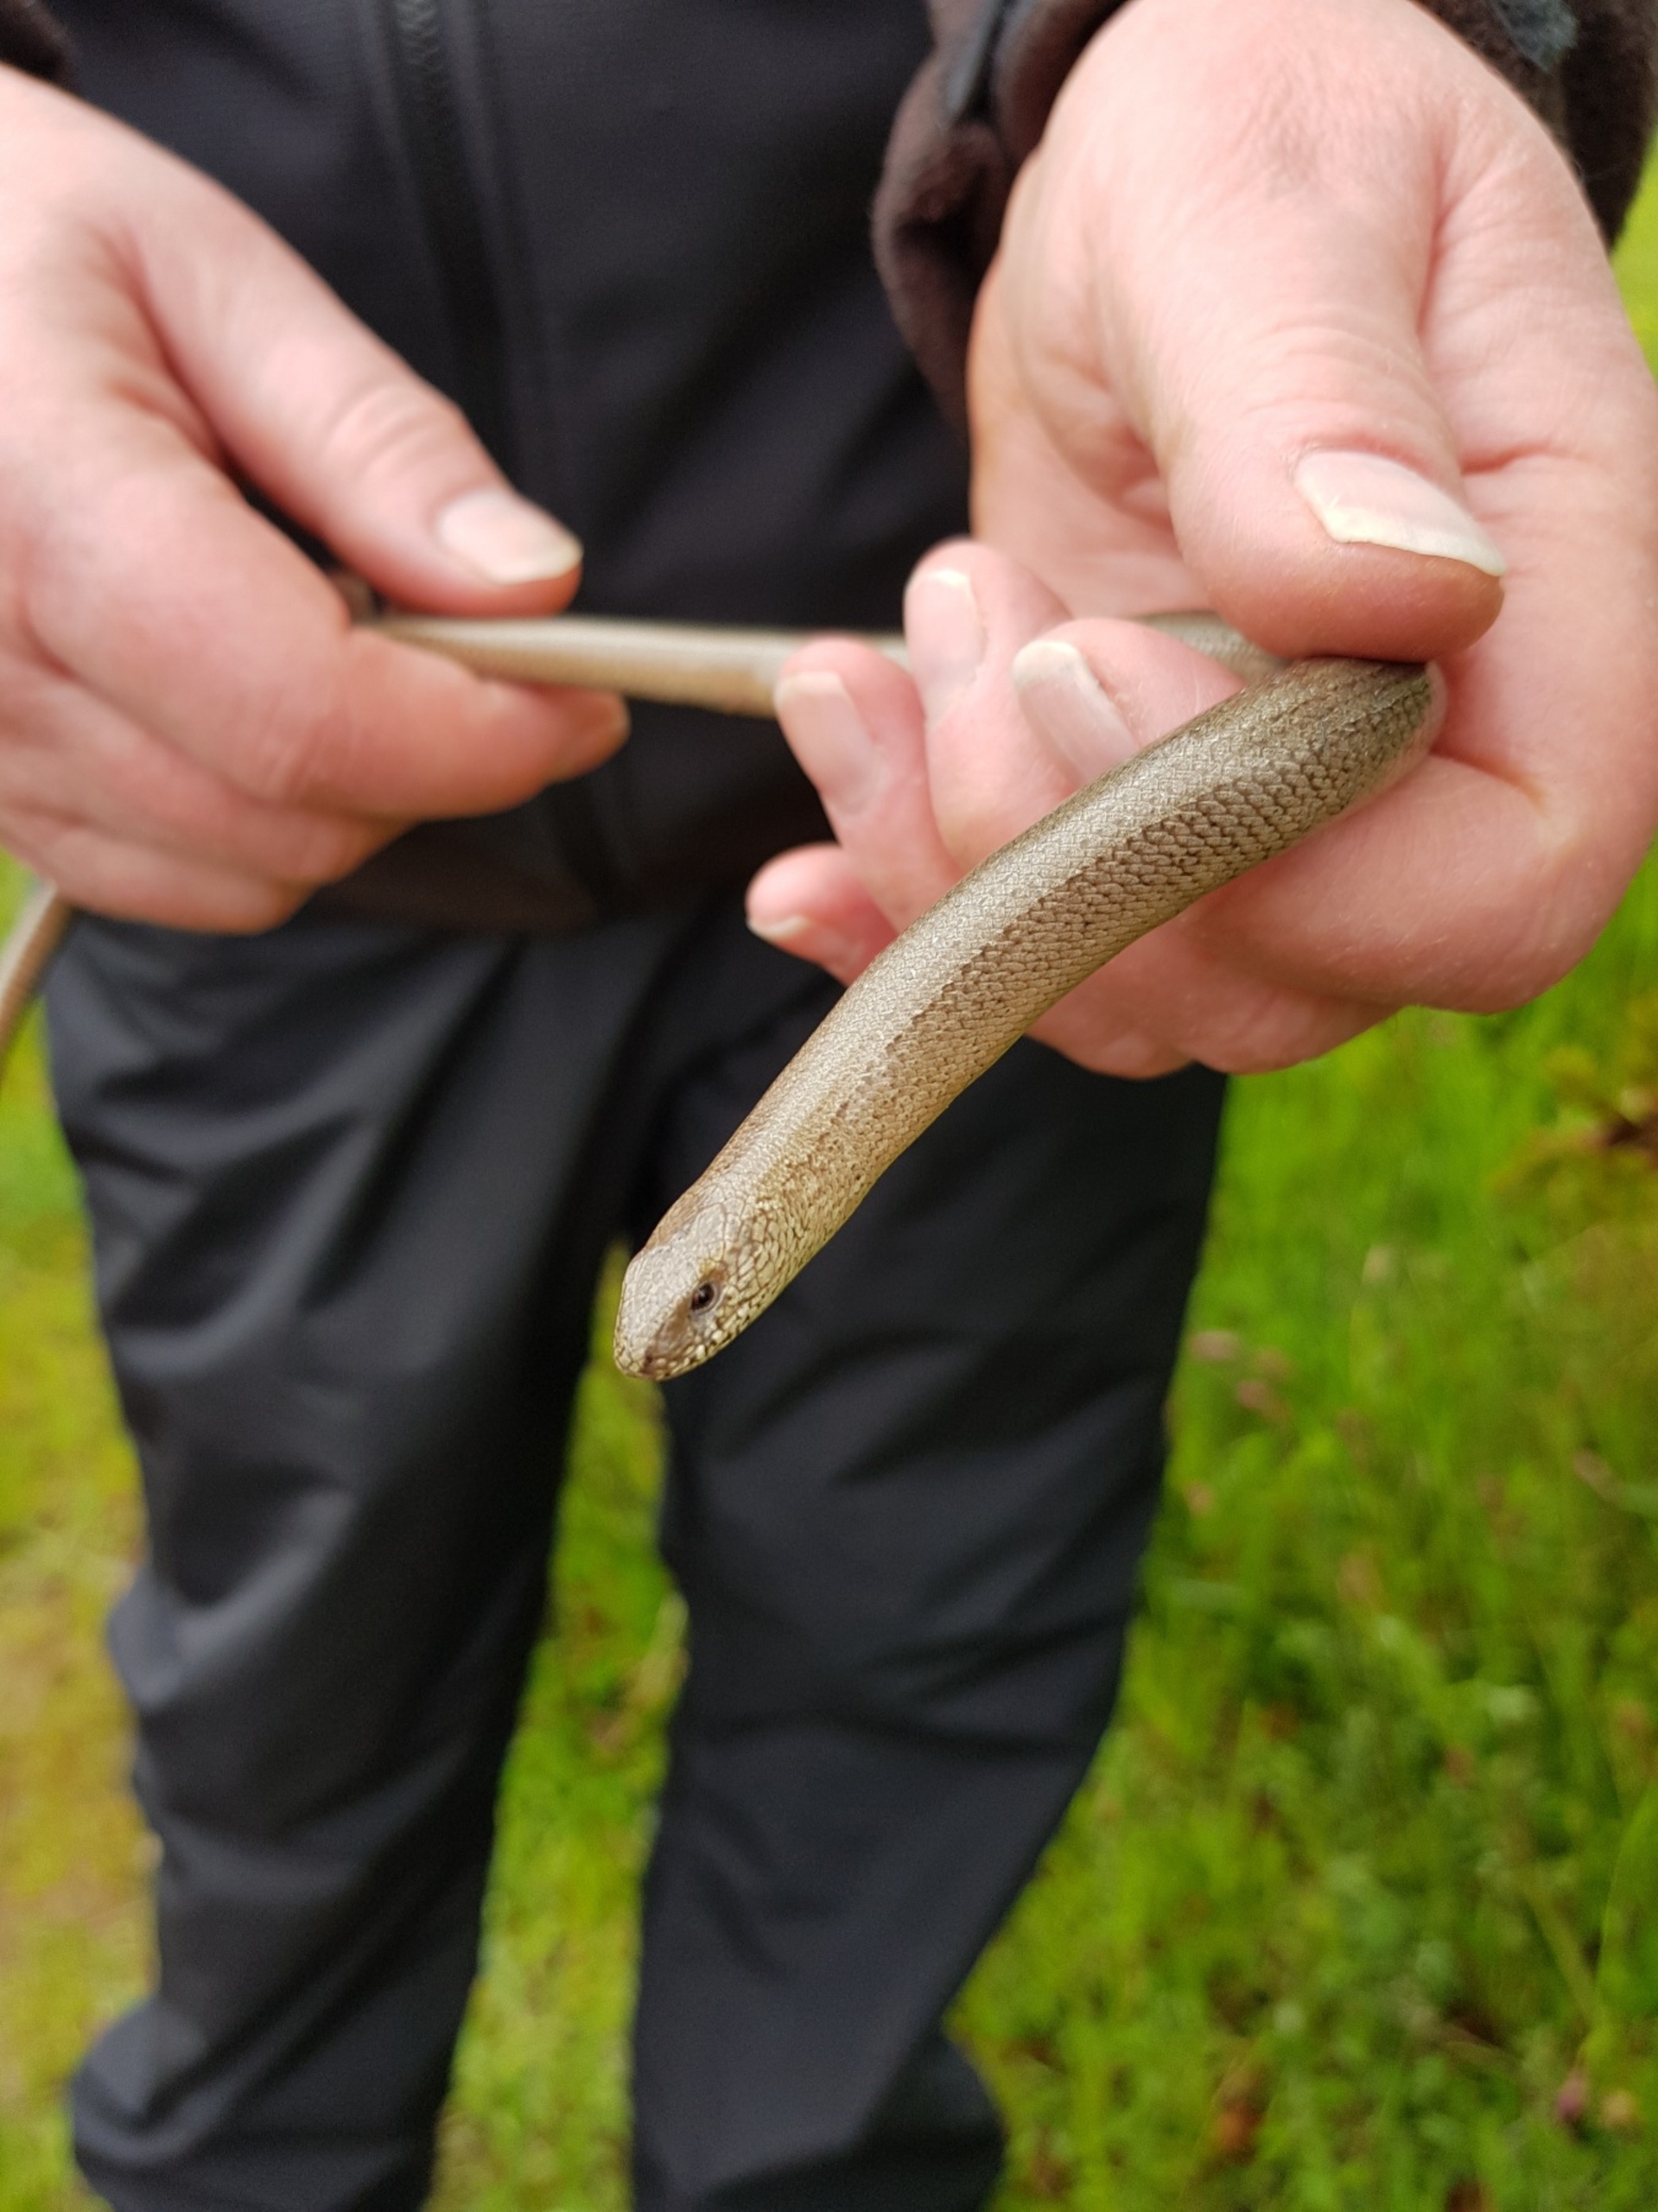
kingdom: Animalia
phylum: Chordata
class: Squamata
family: Anguidae
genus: Anguis
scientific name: Anguis fragilis
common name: Stålorm
